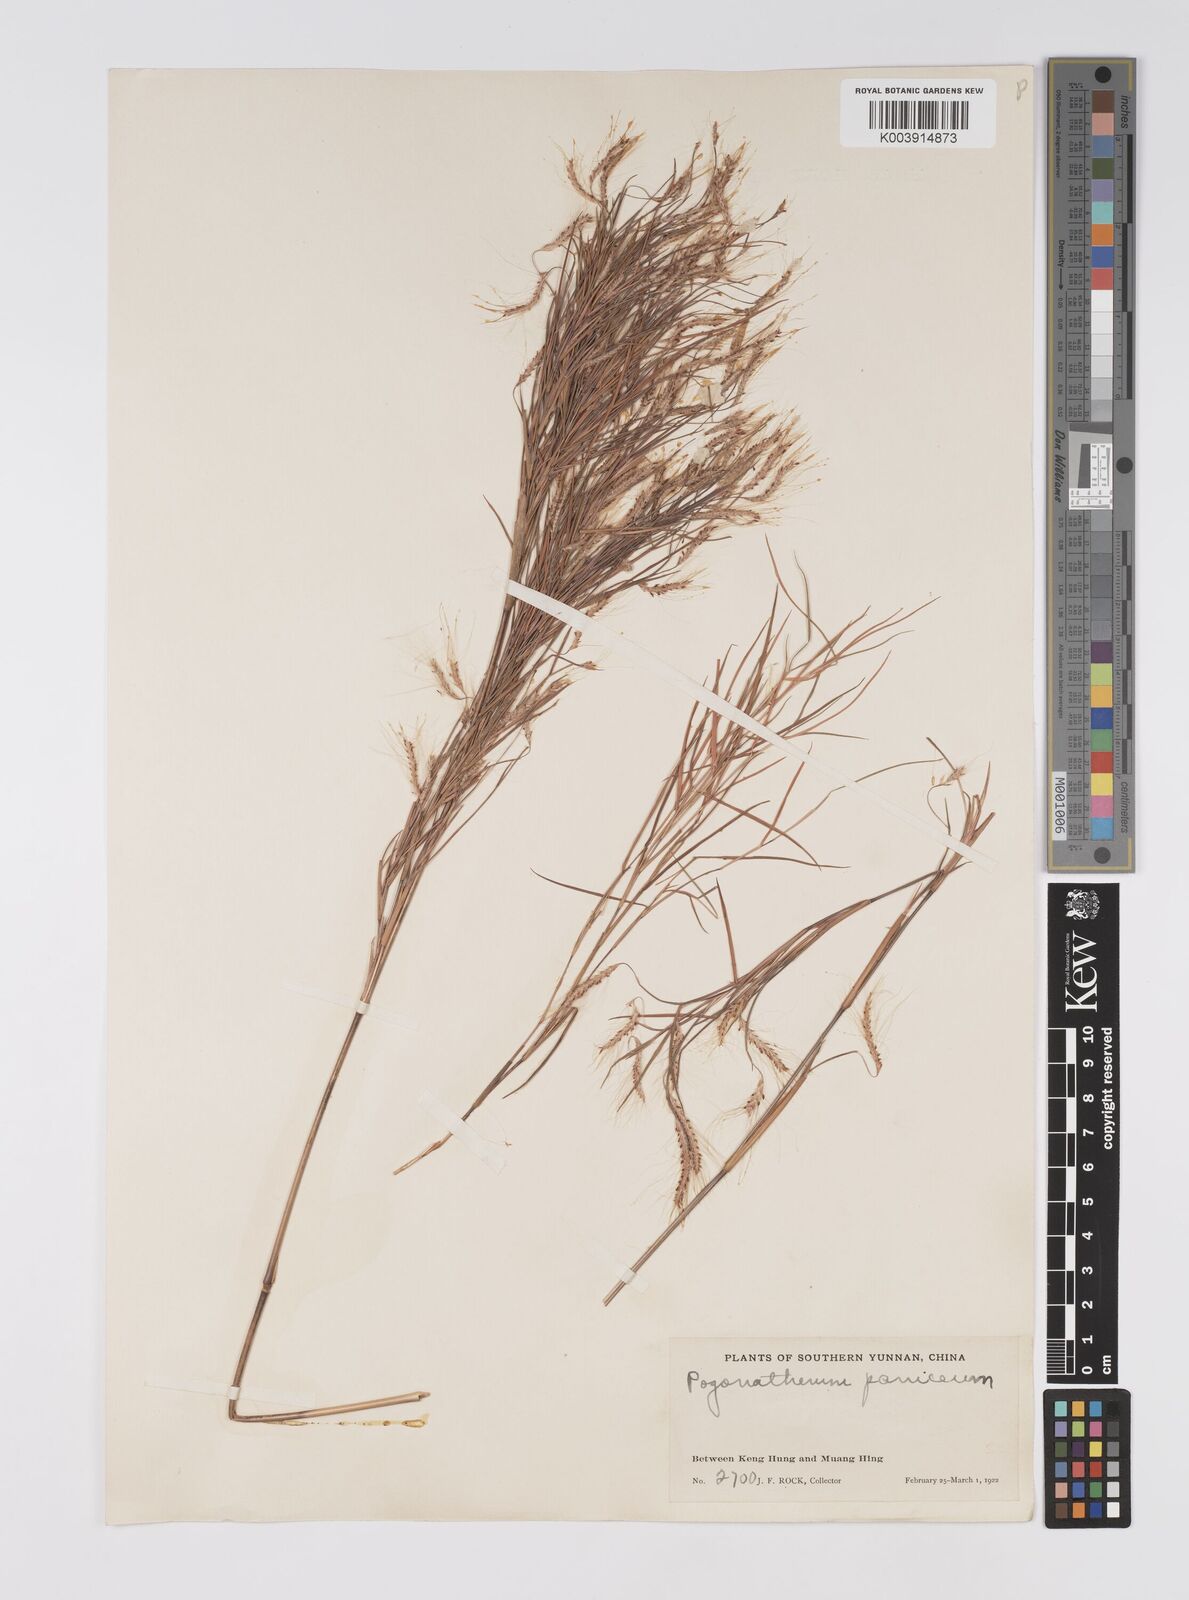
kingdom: Plantae
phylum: Tracheophyta
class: Liliopsida
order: Poales
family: Poaceae
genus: Pogonatherum
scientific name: Pogonatherum paniceum
